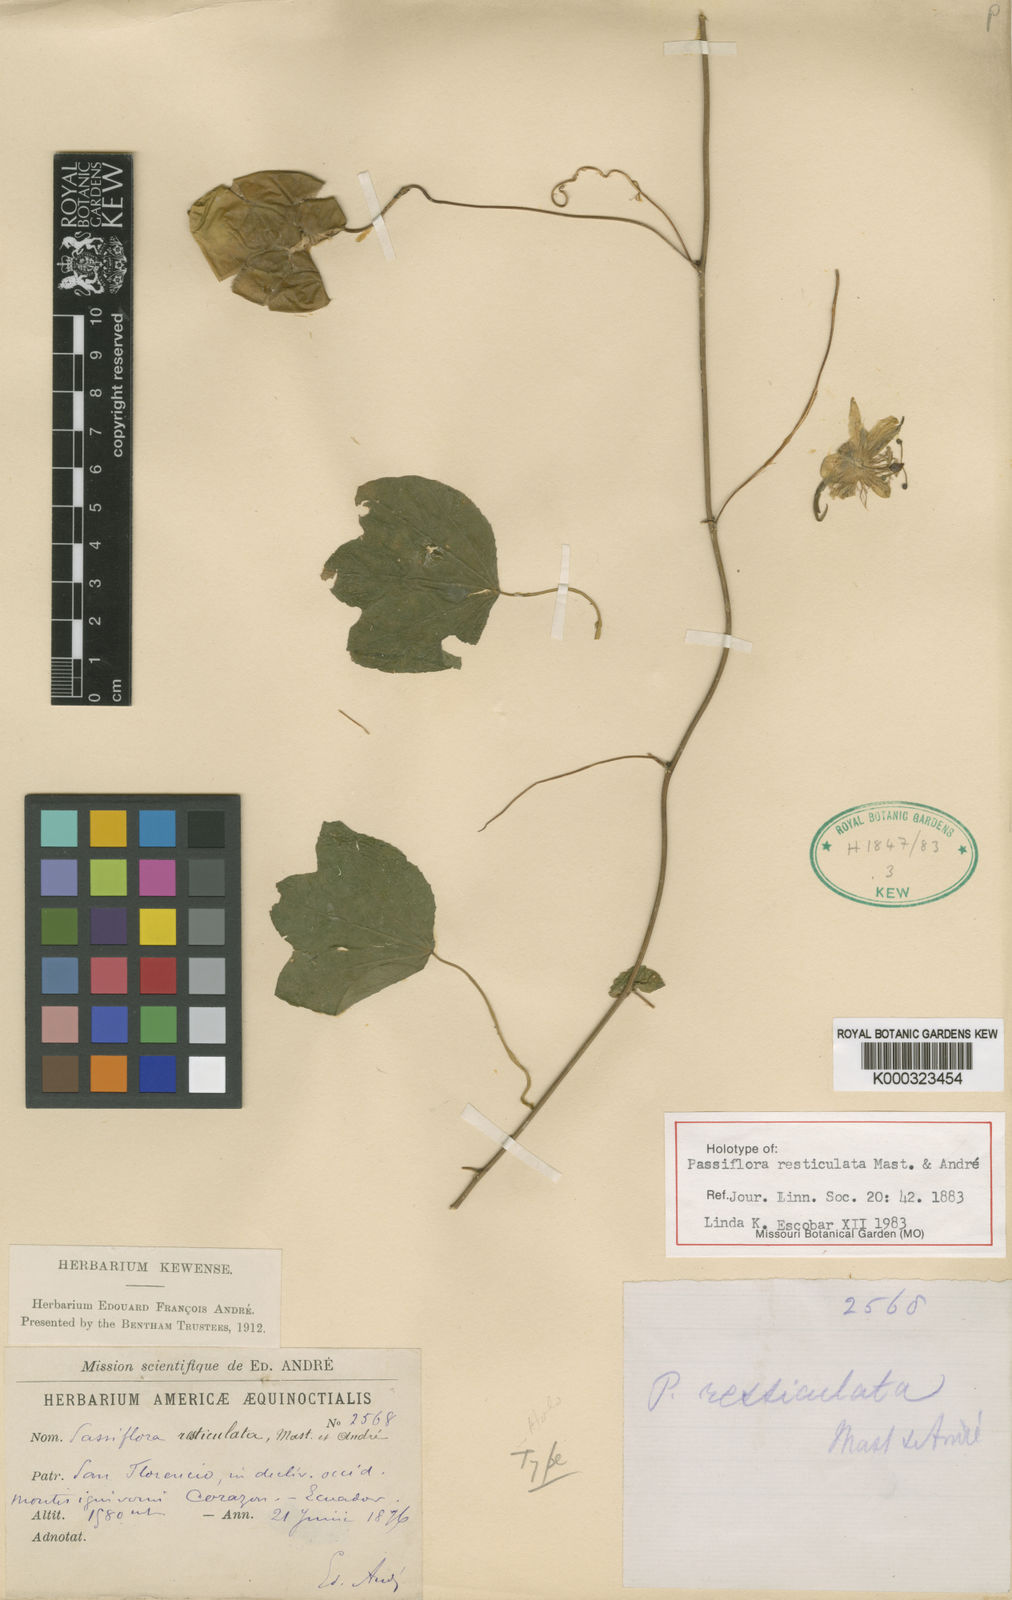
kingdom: Plantae
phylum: Tracheophyta
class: Magnoliopsida
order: Malpighiales
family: Passifloraceae
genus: Passiflora
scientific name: Passiflora resticulata
